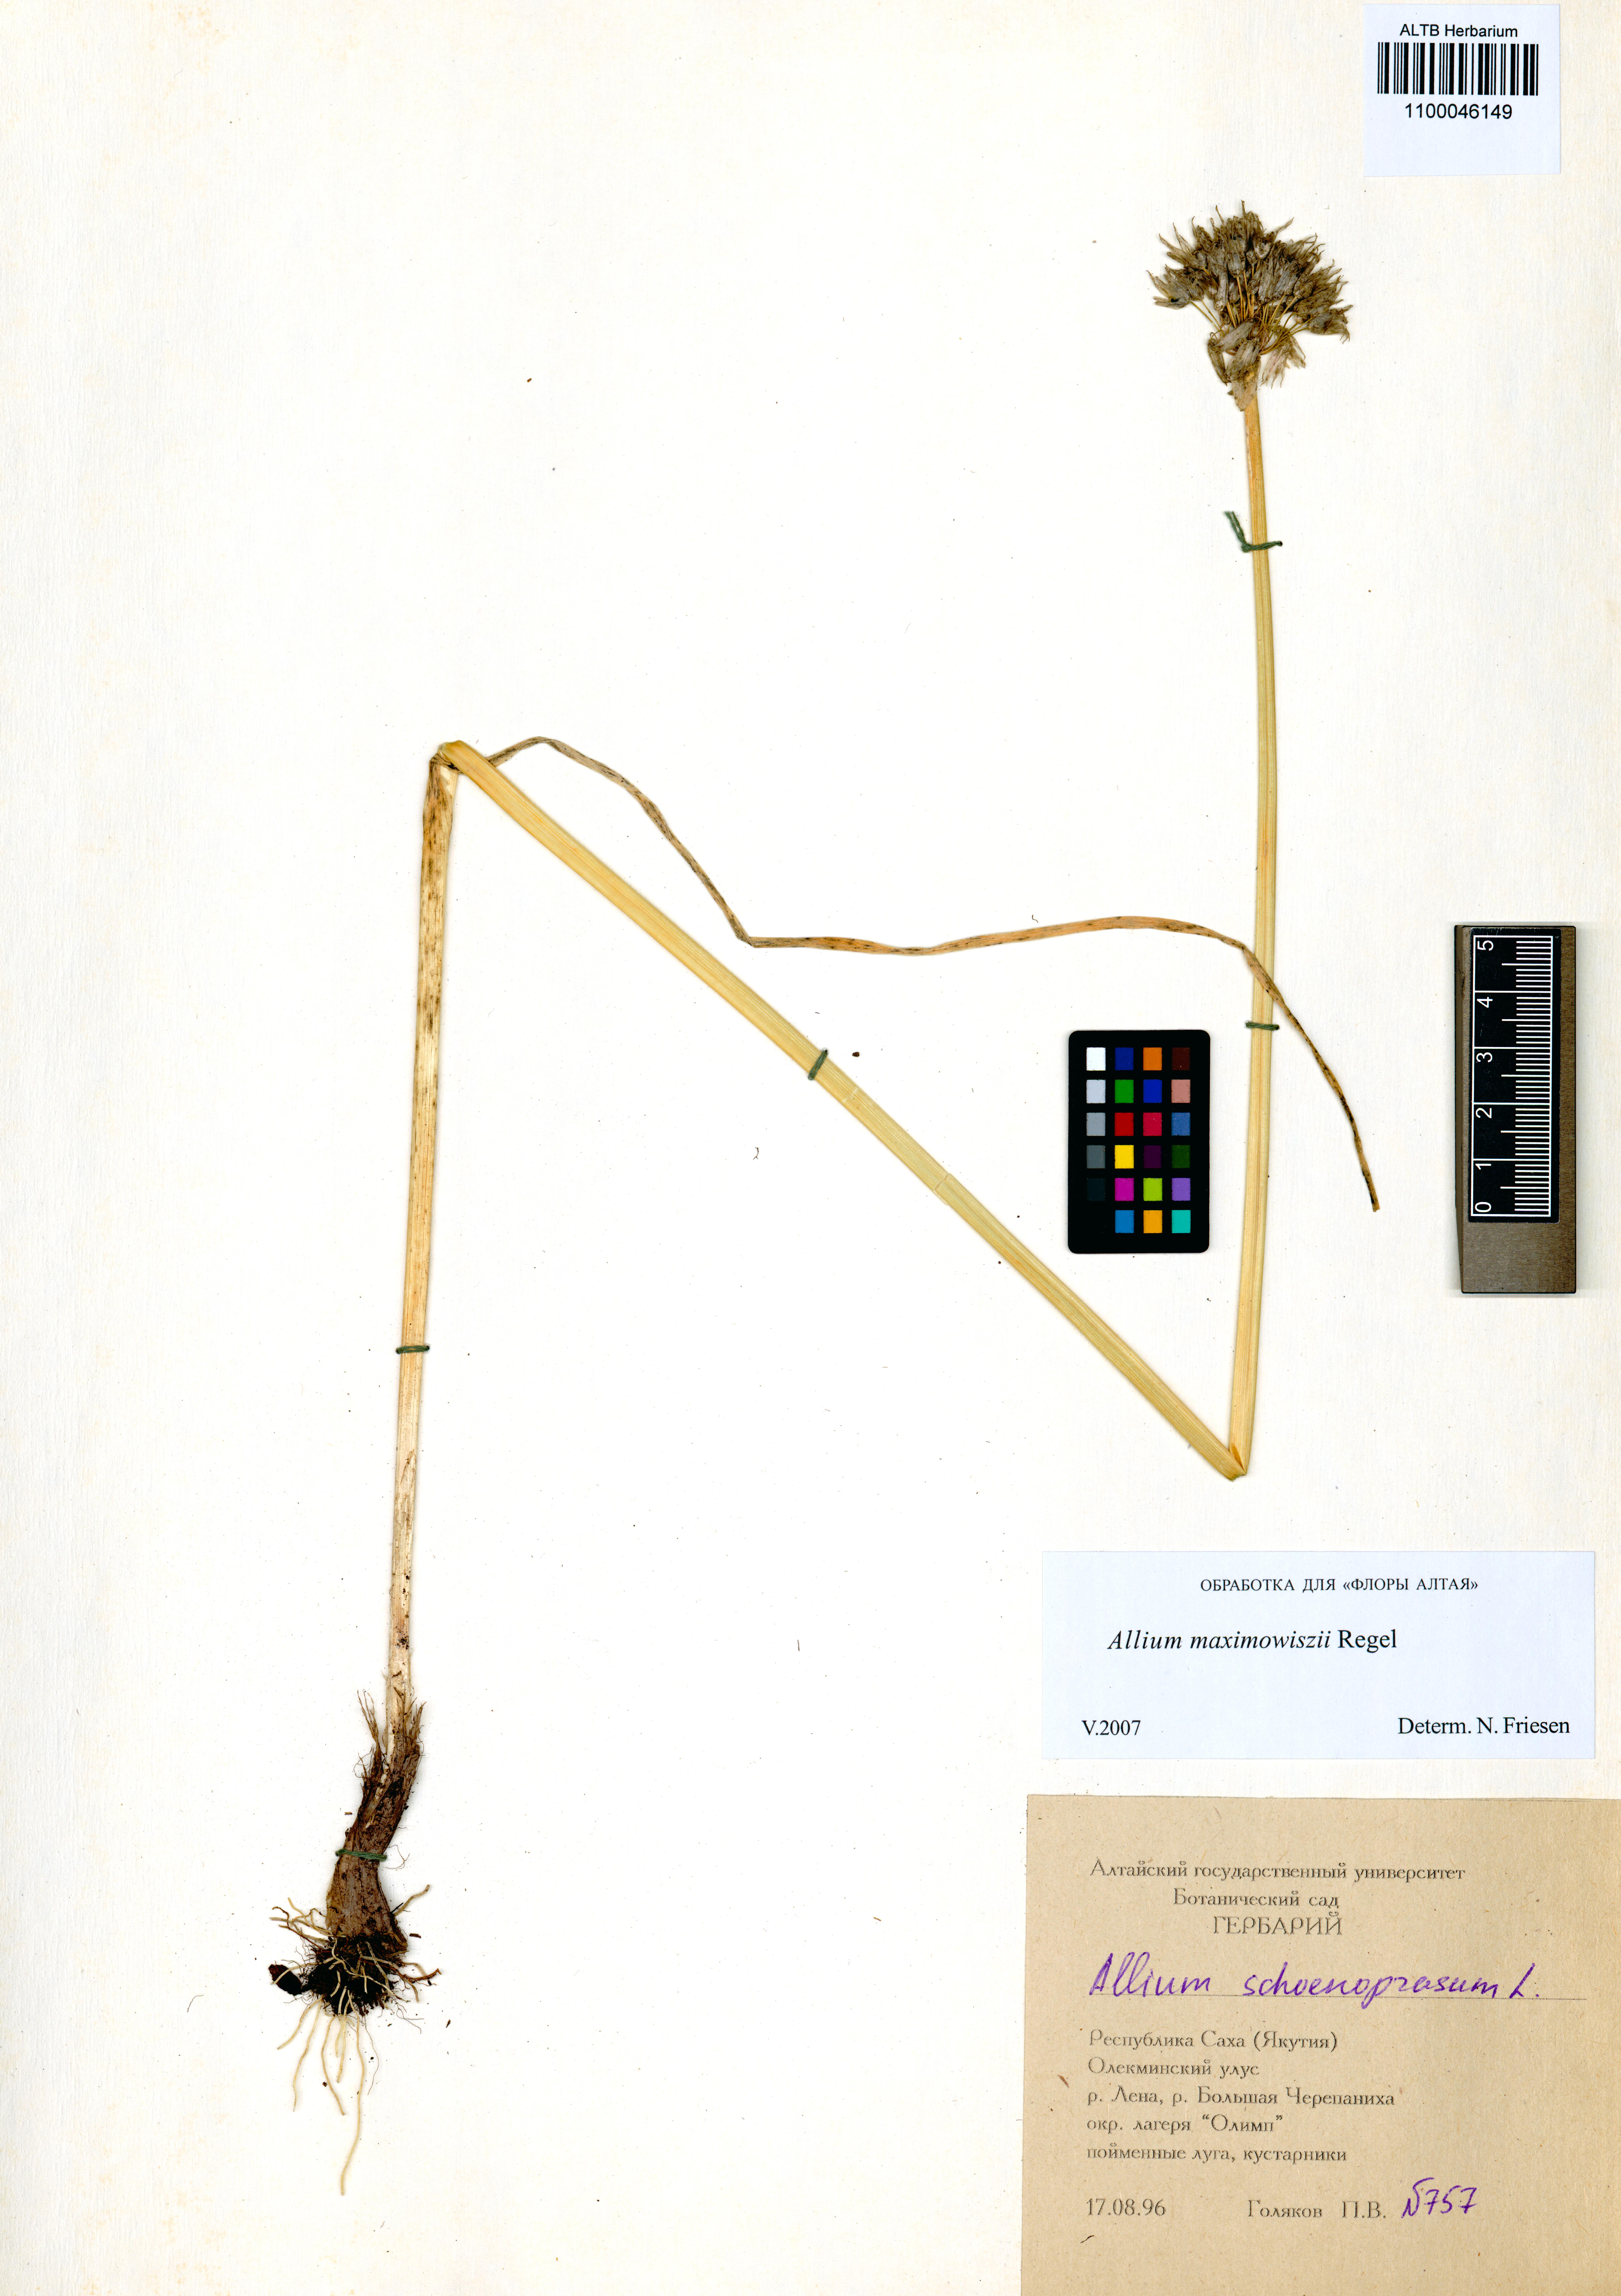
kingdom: Plantae
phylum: Tracheophyta
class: Liliopsida
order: Asparagales
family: Amaryllidaceae
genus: Allium
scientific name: Allium maximowiczii
